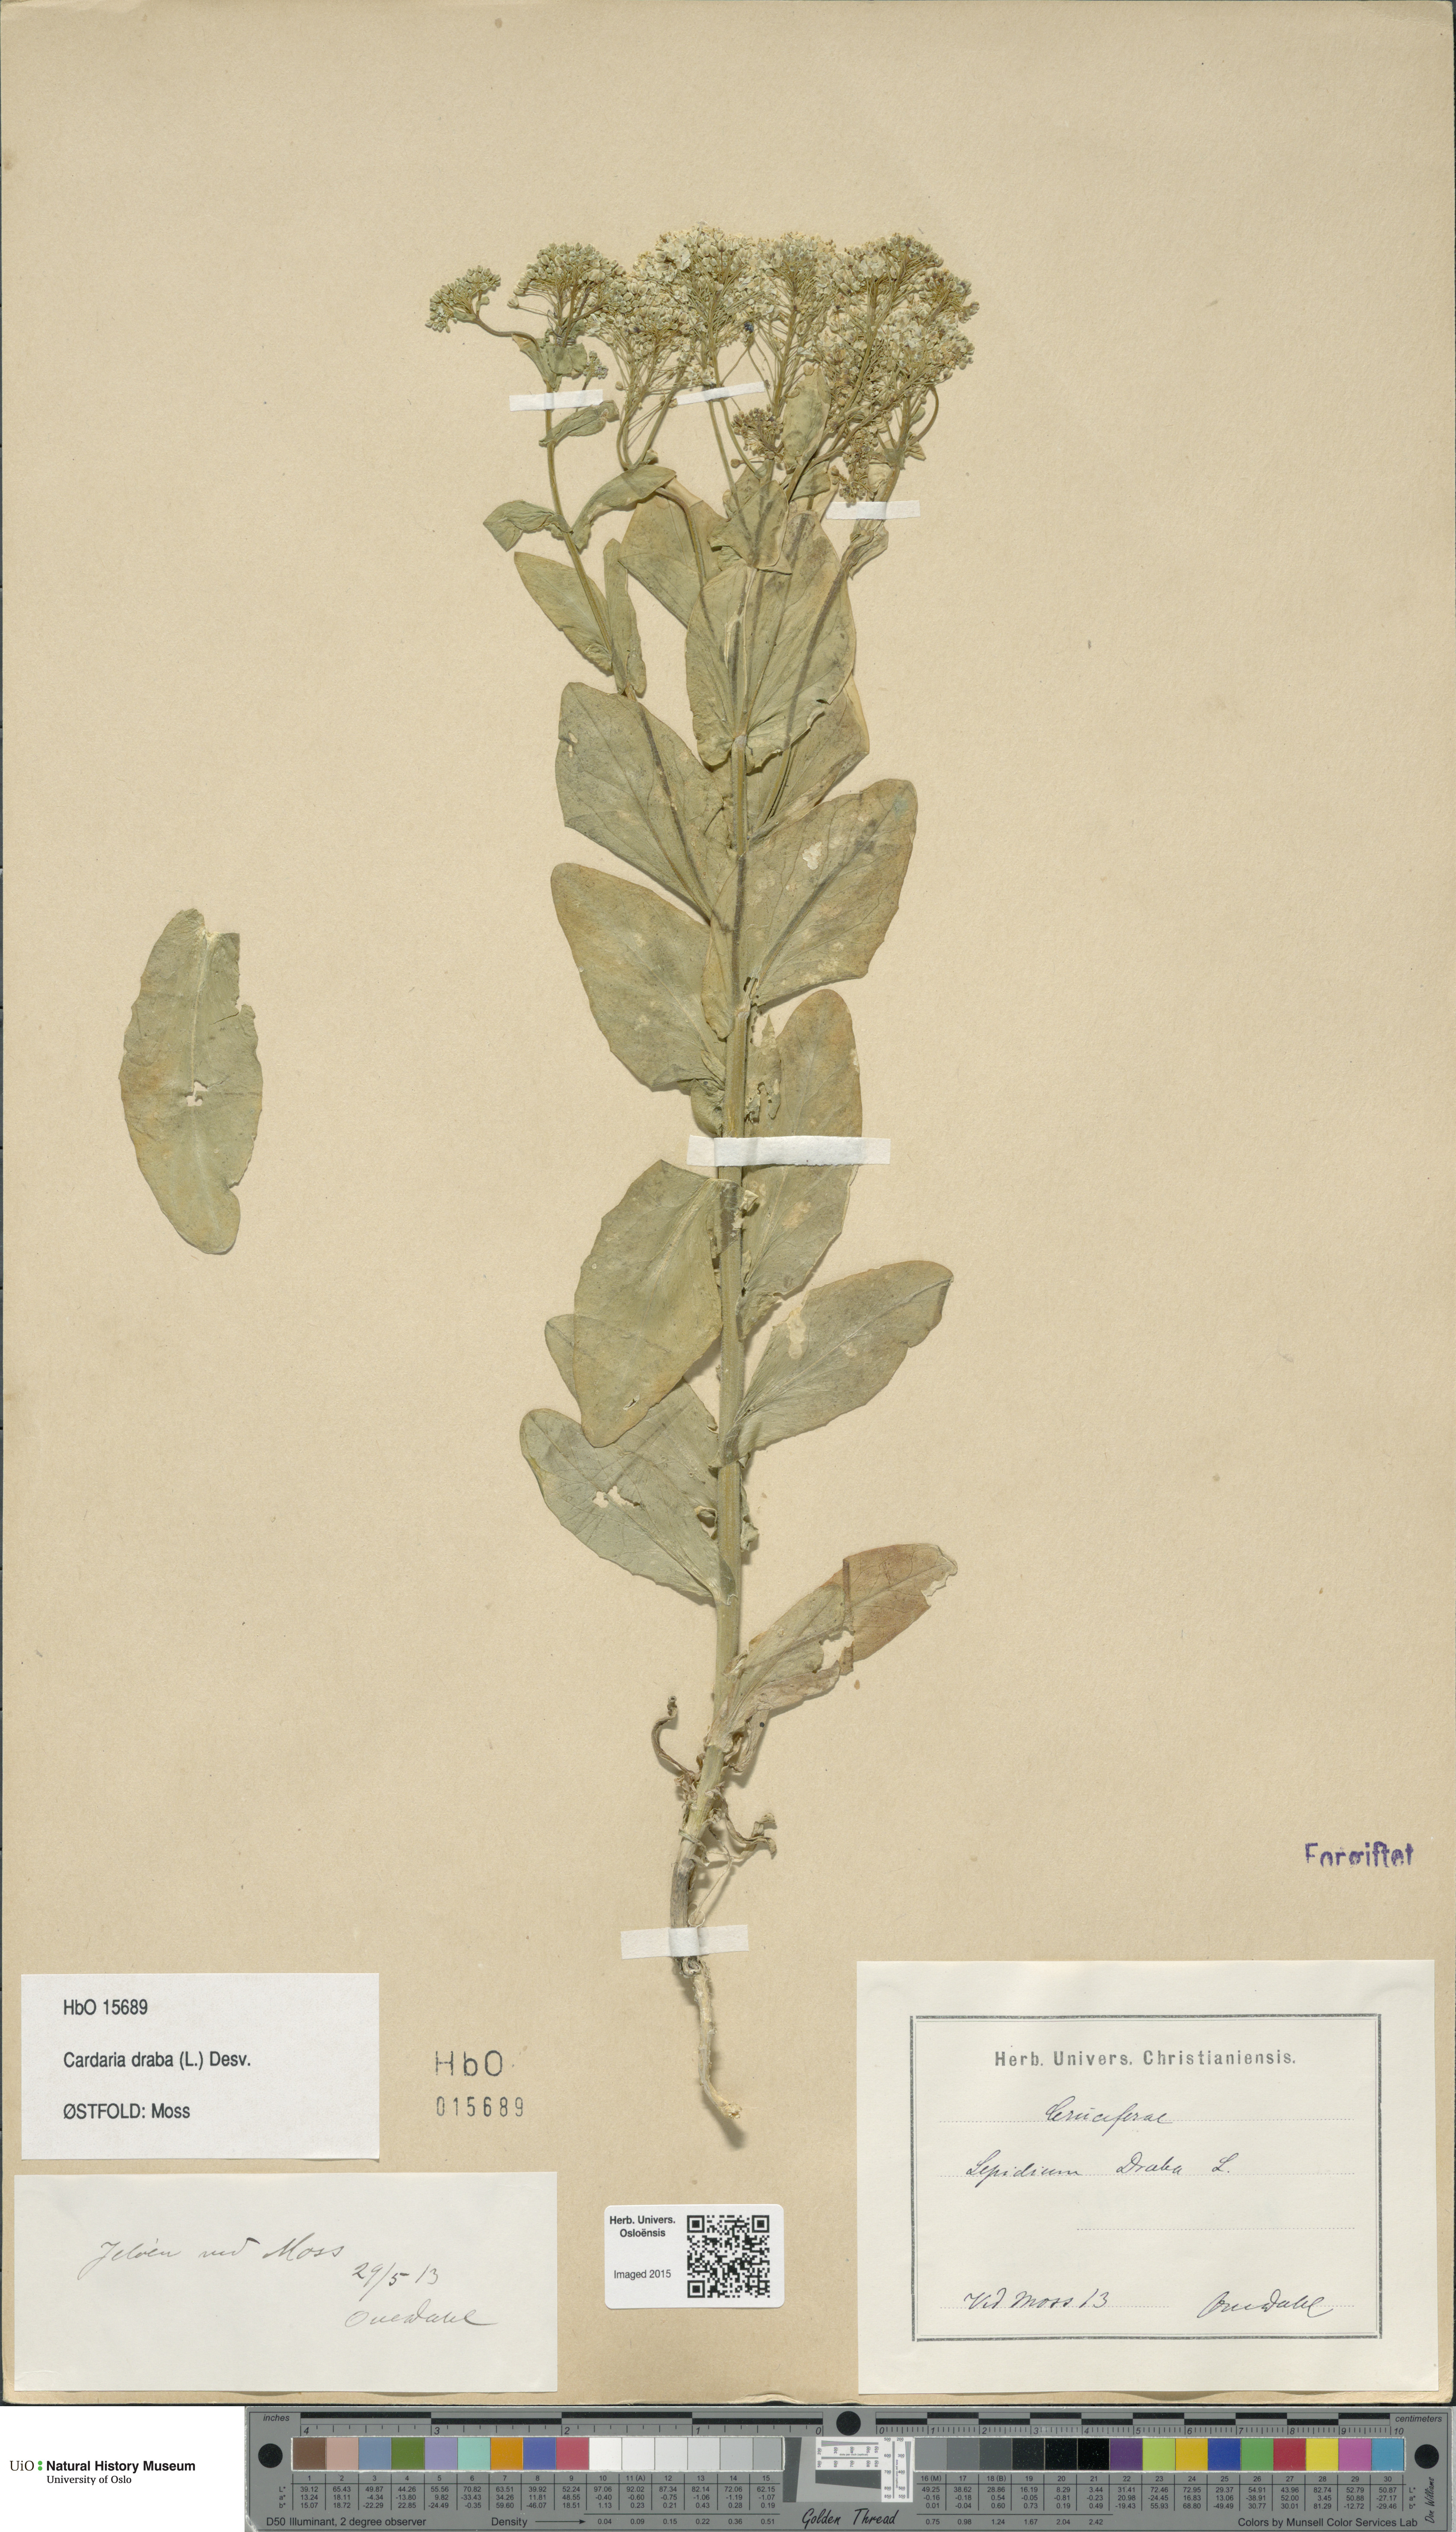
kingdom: Plantae
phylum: Tracheophyta
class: Magnoliopsida
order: Brassicales
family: Brassicaceae
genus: Lepidium
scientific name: Lepidium draba
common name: Hoary cress
